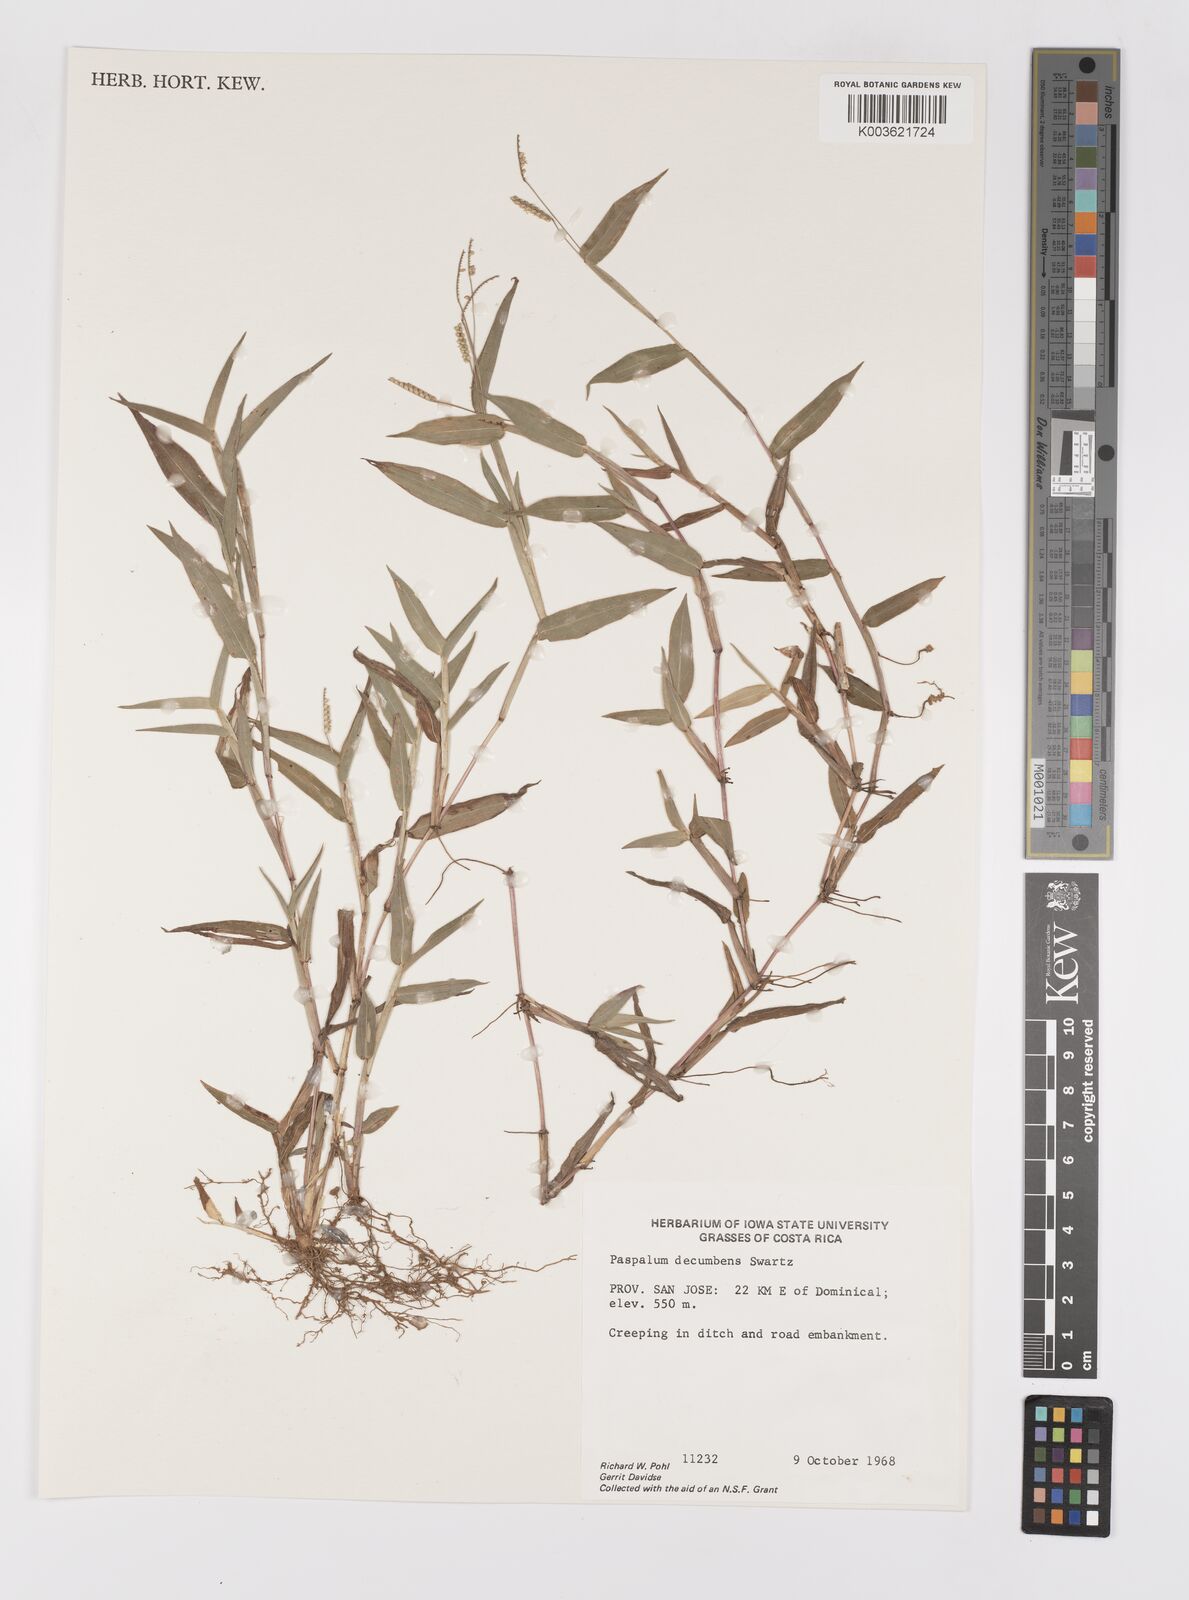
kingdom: Plantae
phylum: Tracheophyta
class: Liliopsida
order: Poales
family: Poaceae
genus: Paspalum
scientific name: Paspalum
